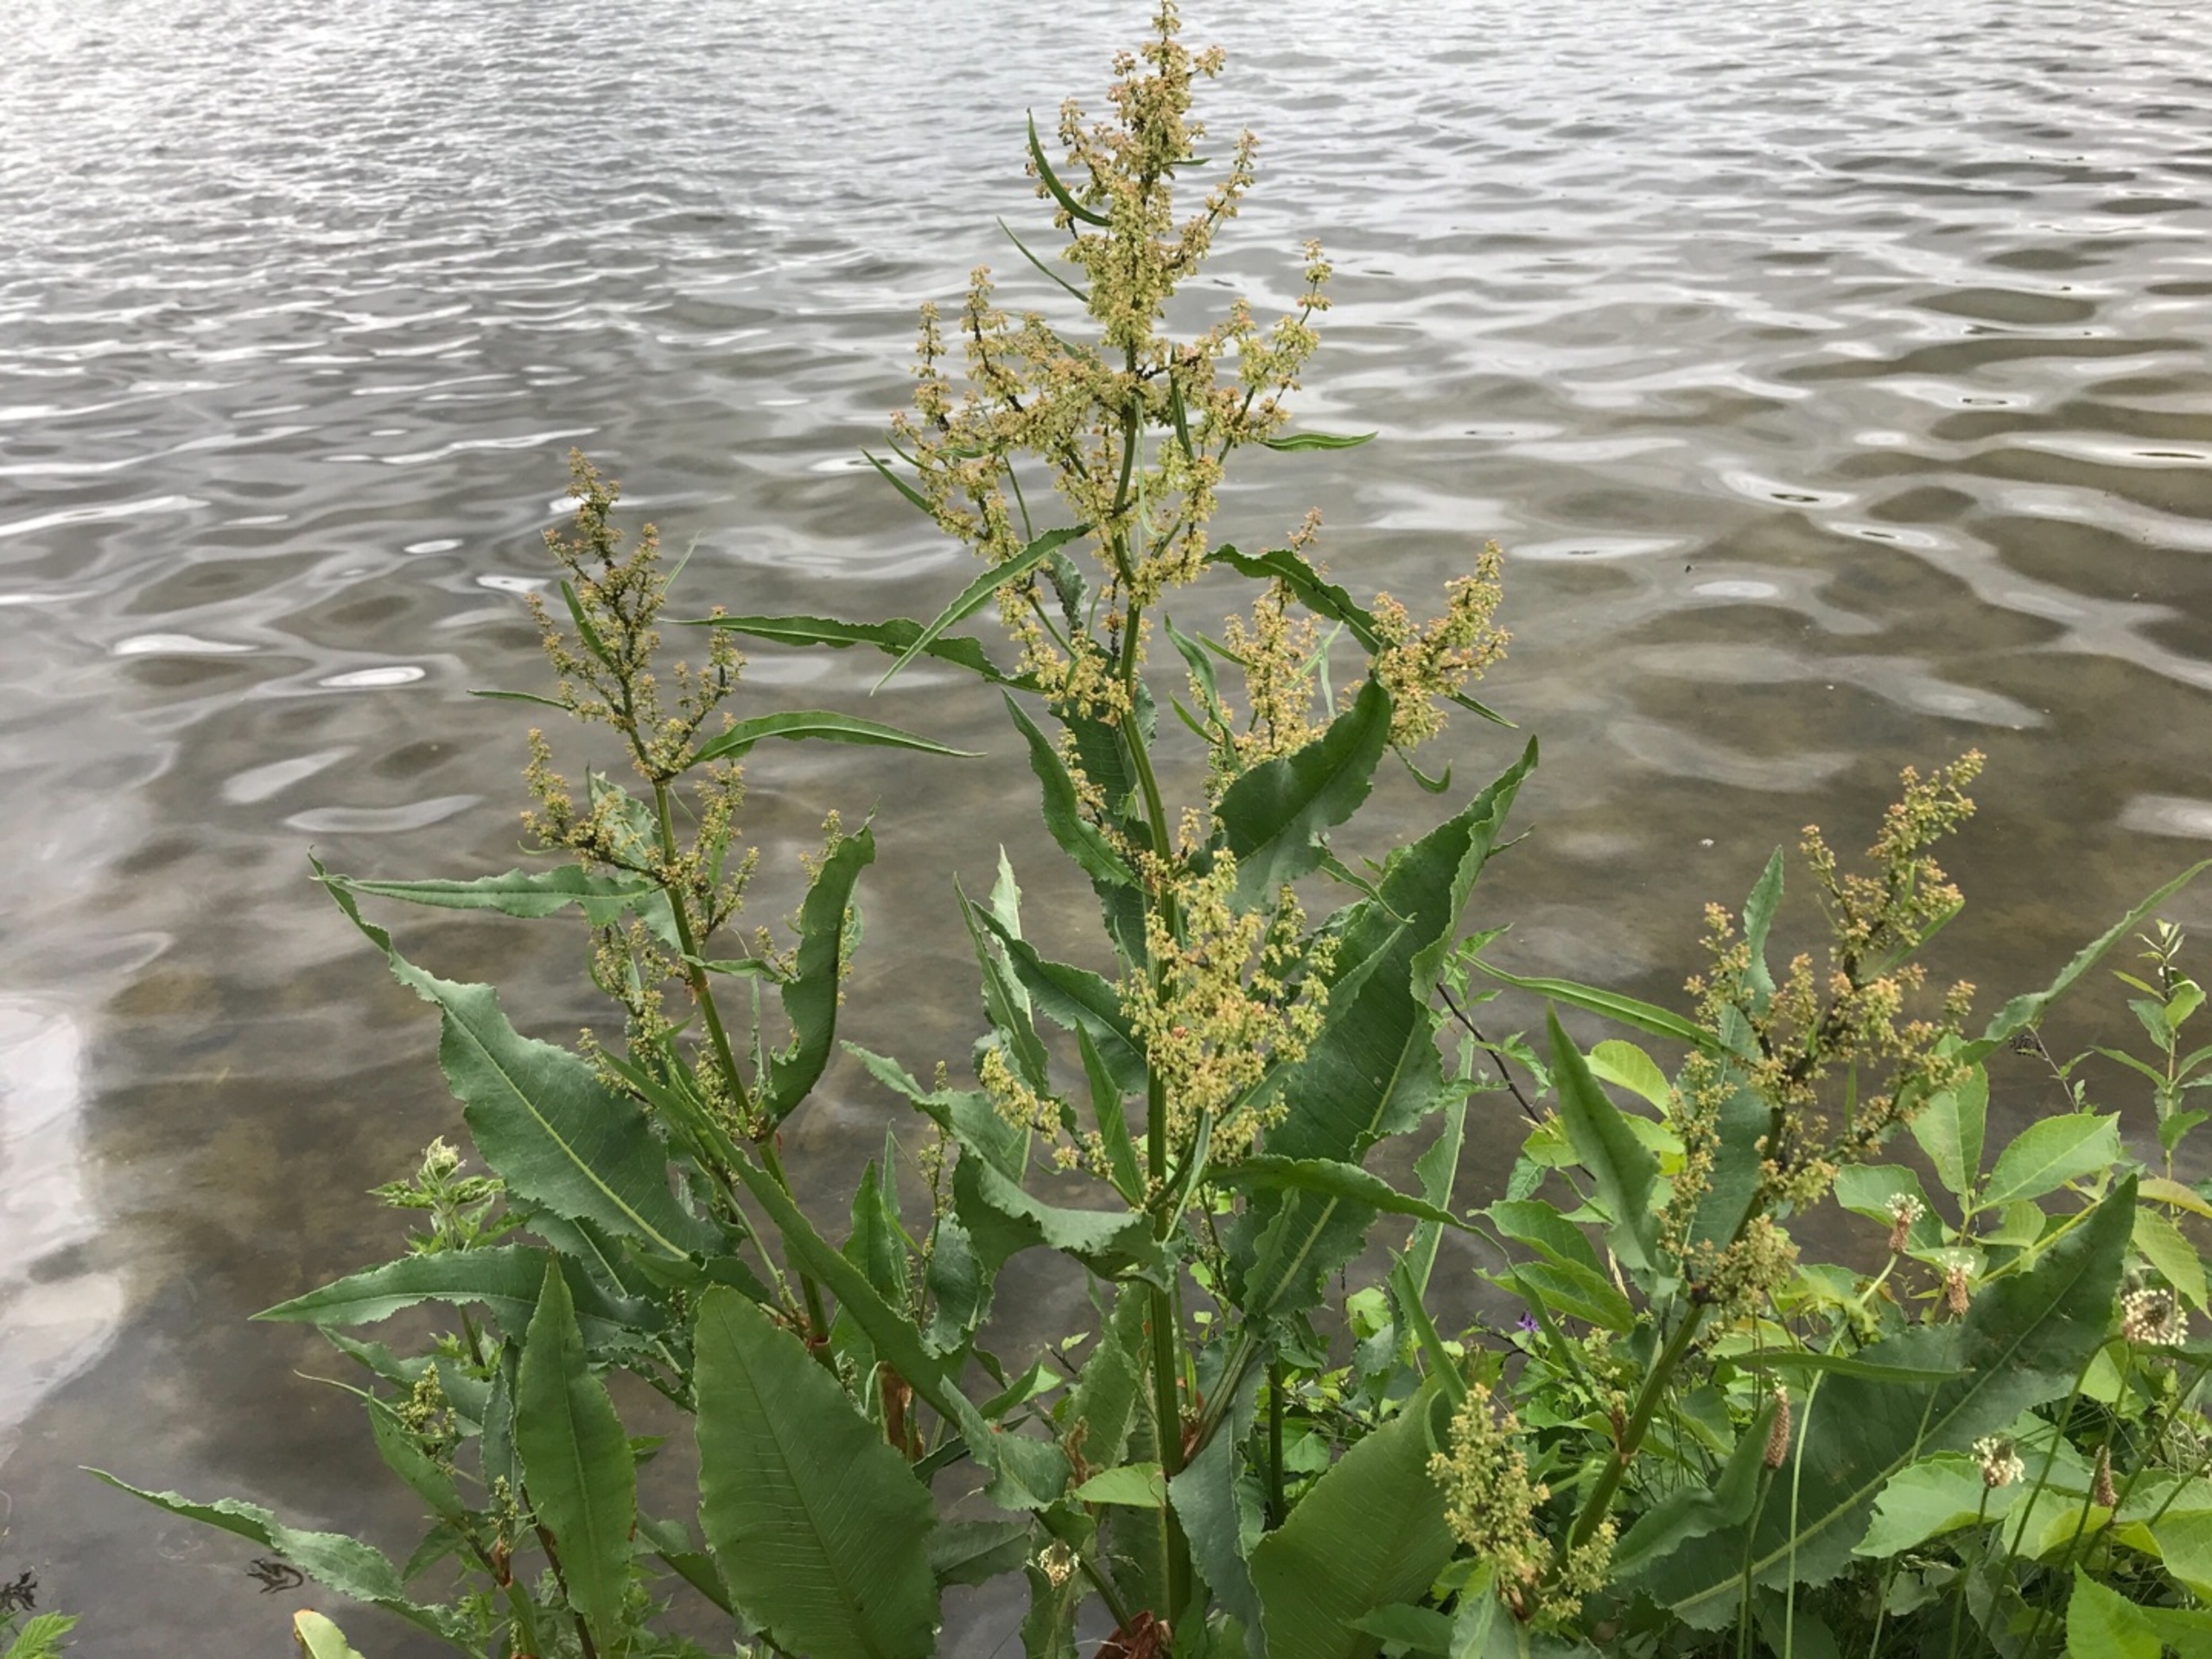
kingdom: Plantae
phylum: Tracheophyta
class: Magnoliopsida
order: Caryophyllales
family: Polygonaceae
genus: Rumex
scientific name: Rumex
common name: Kruset skræppe × vand-skræppe
